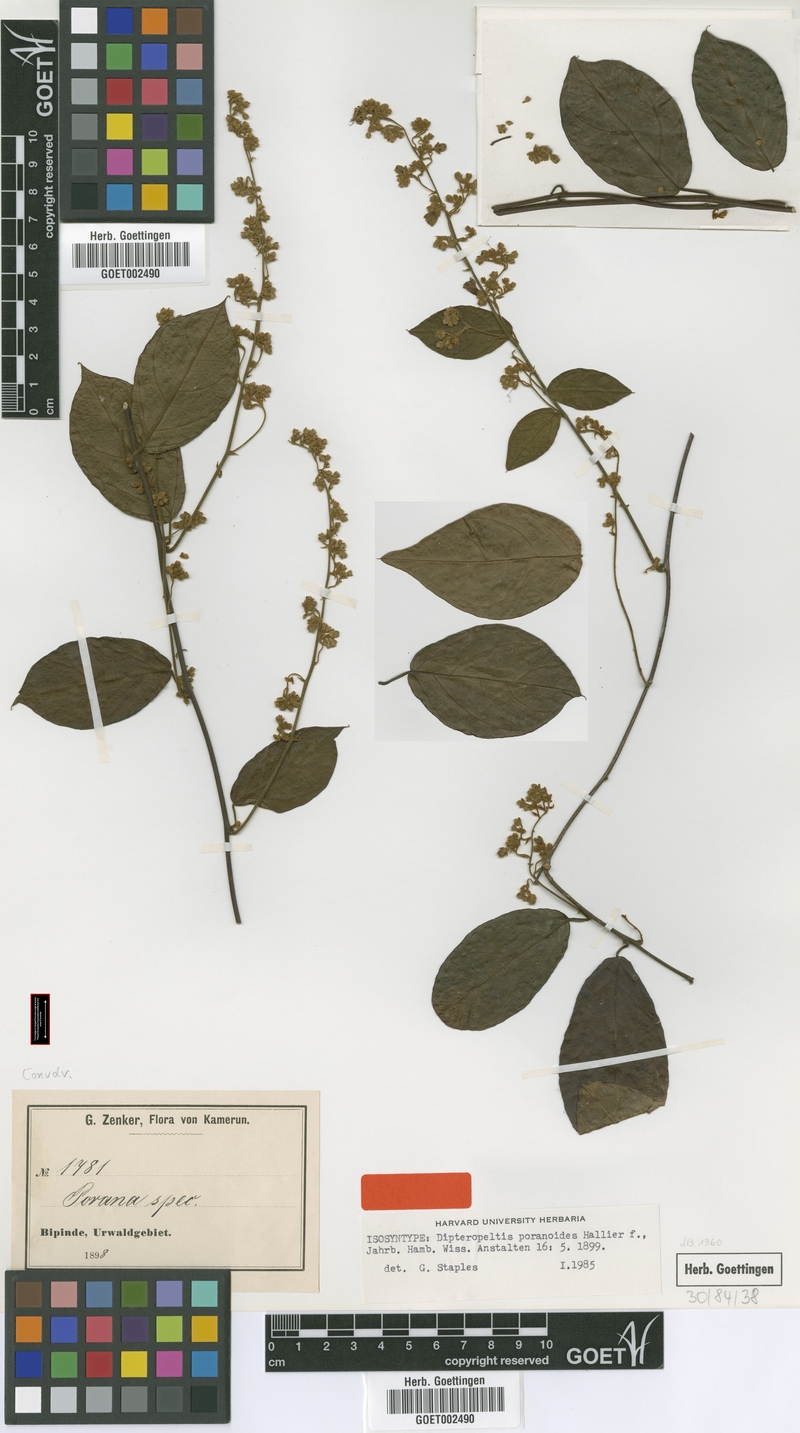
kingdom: Plantae
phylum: Tracheophyta
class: Magnoliopsida
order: Solanales
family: Convolvulaceae
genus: Dipteropeltis
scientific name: Dipteropeltis poranoides
